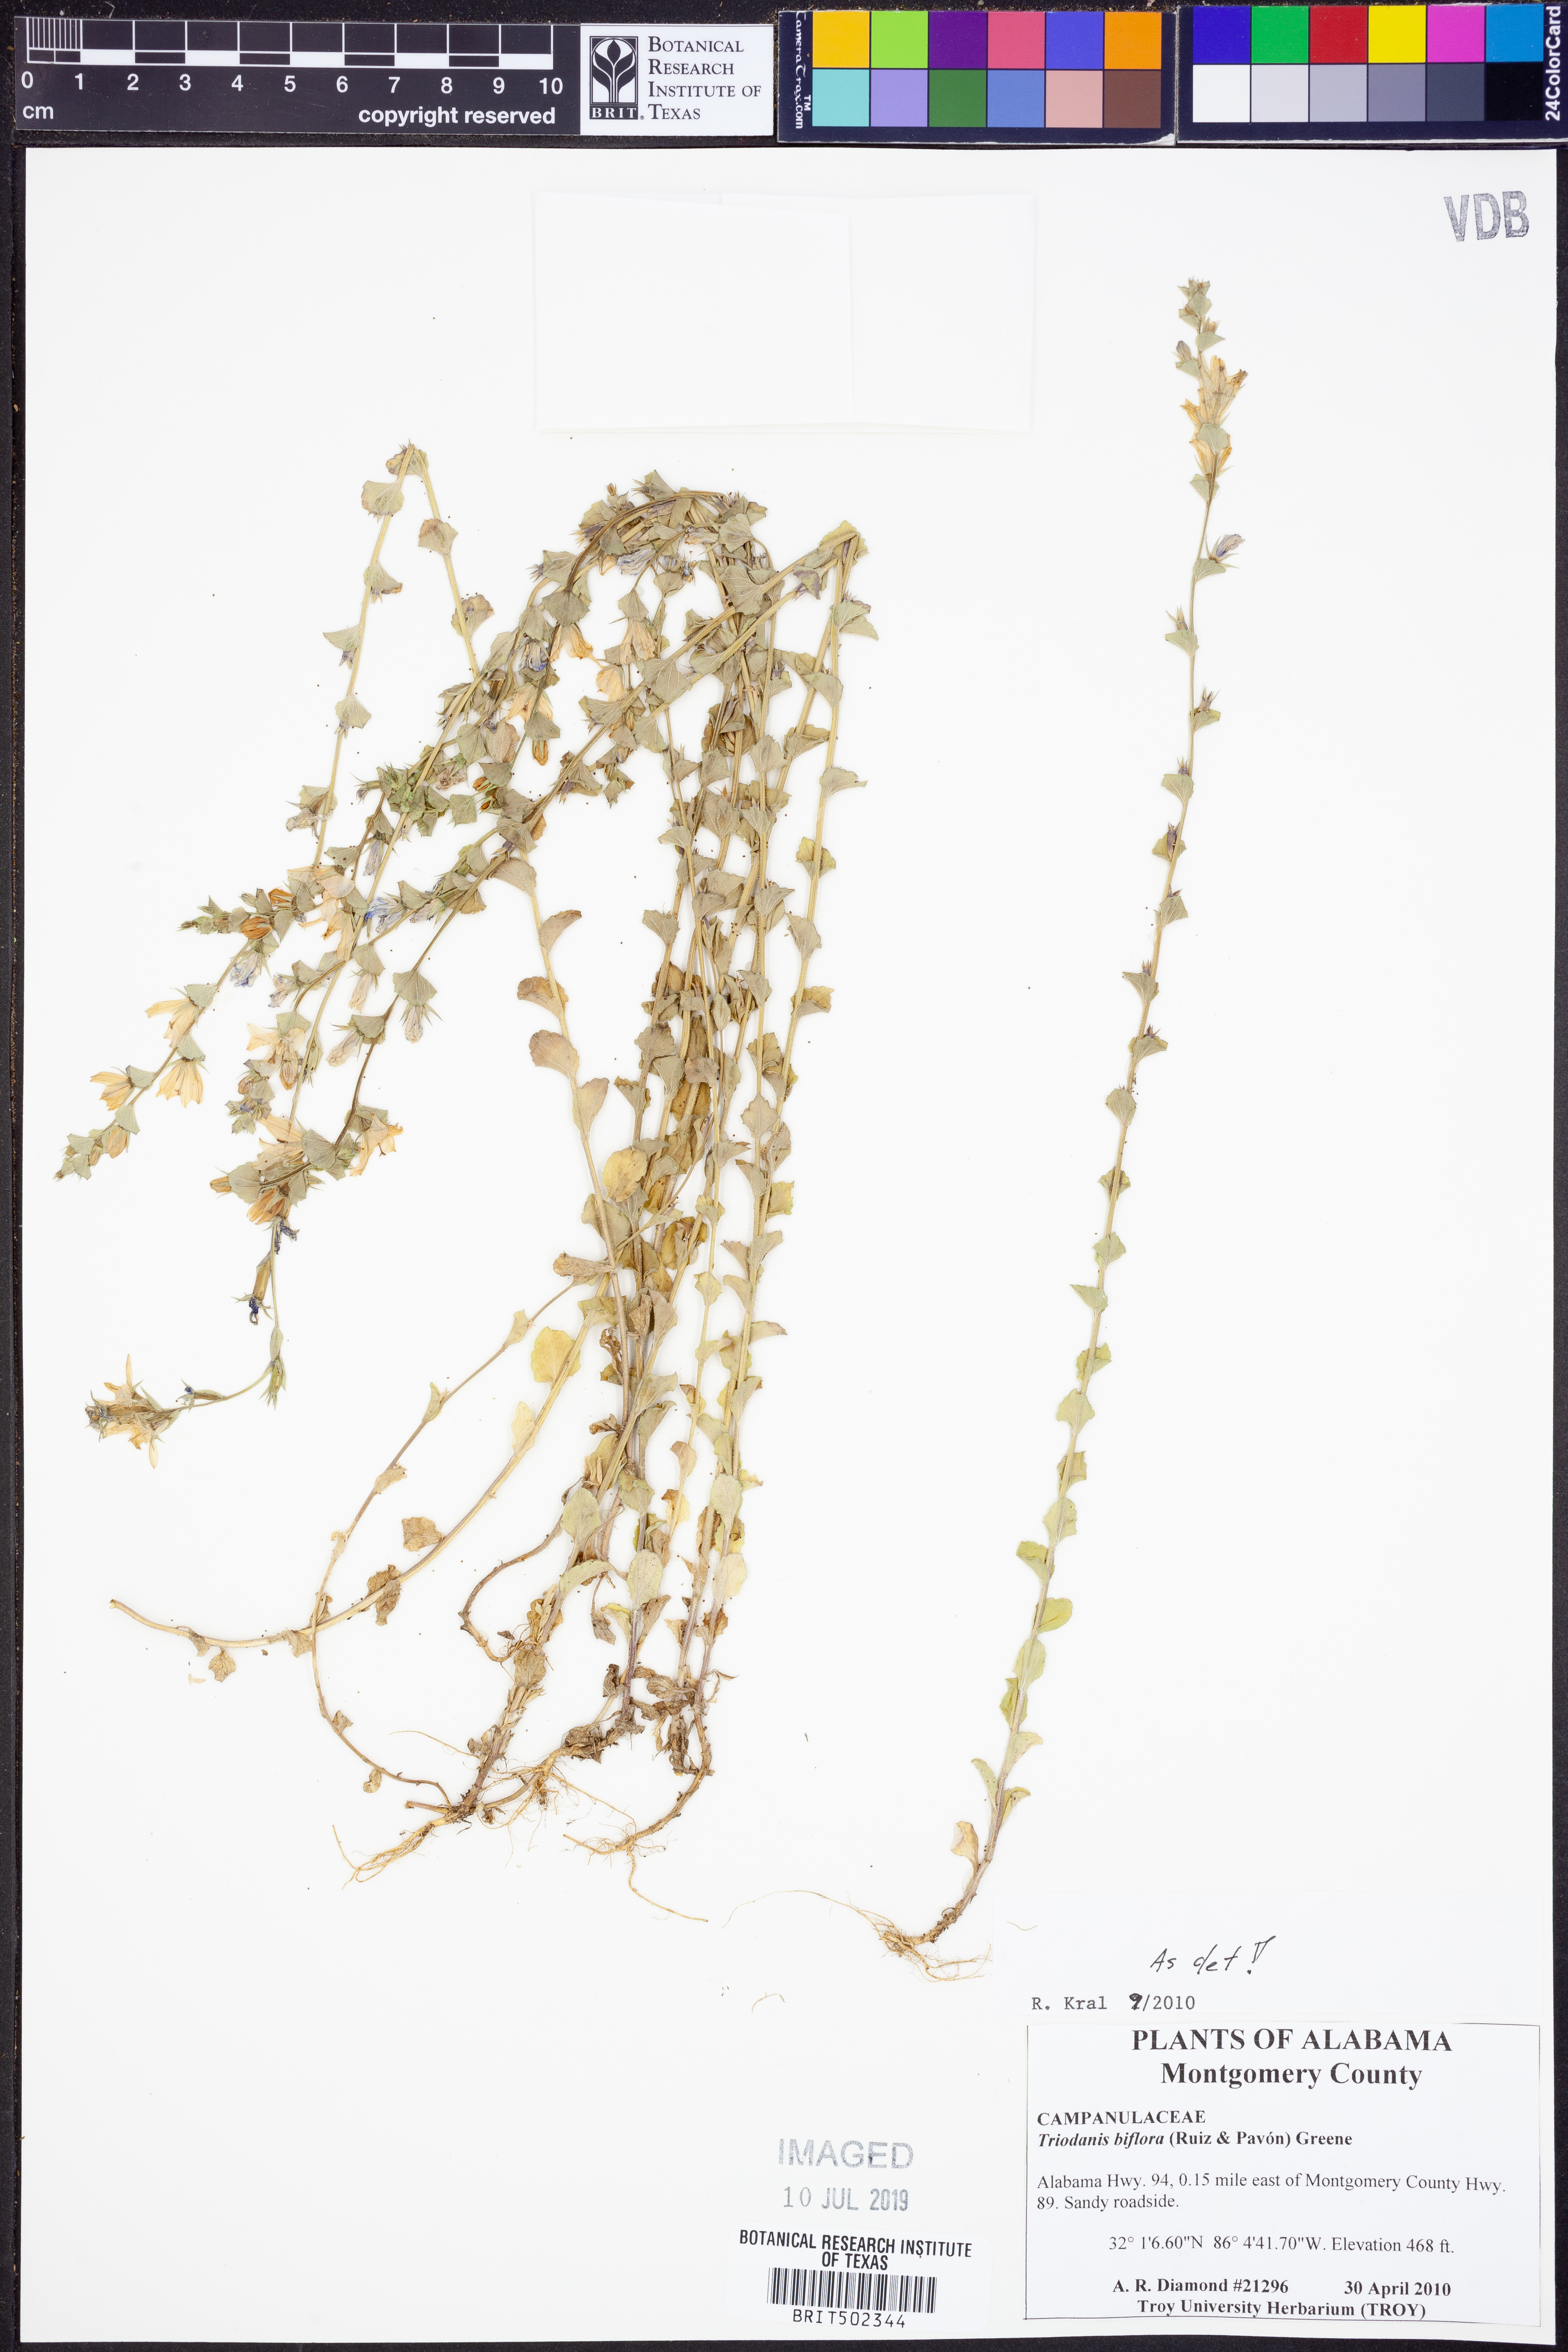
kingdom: Plantae
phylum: Tracheophyta
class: Magnoliopsida
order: Asterales
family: Campanulaceae
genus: Triodanis
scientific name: Triodanis perfoliata
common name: Clasping venus' looking-glass
